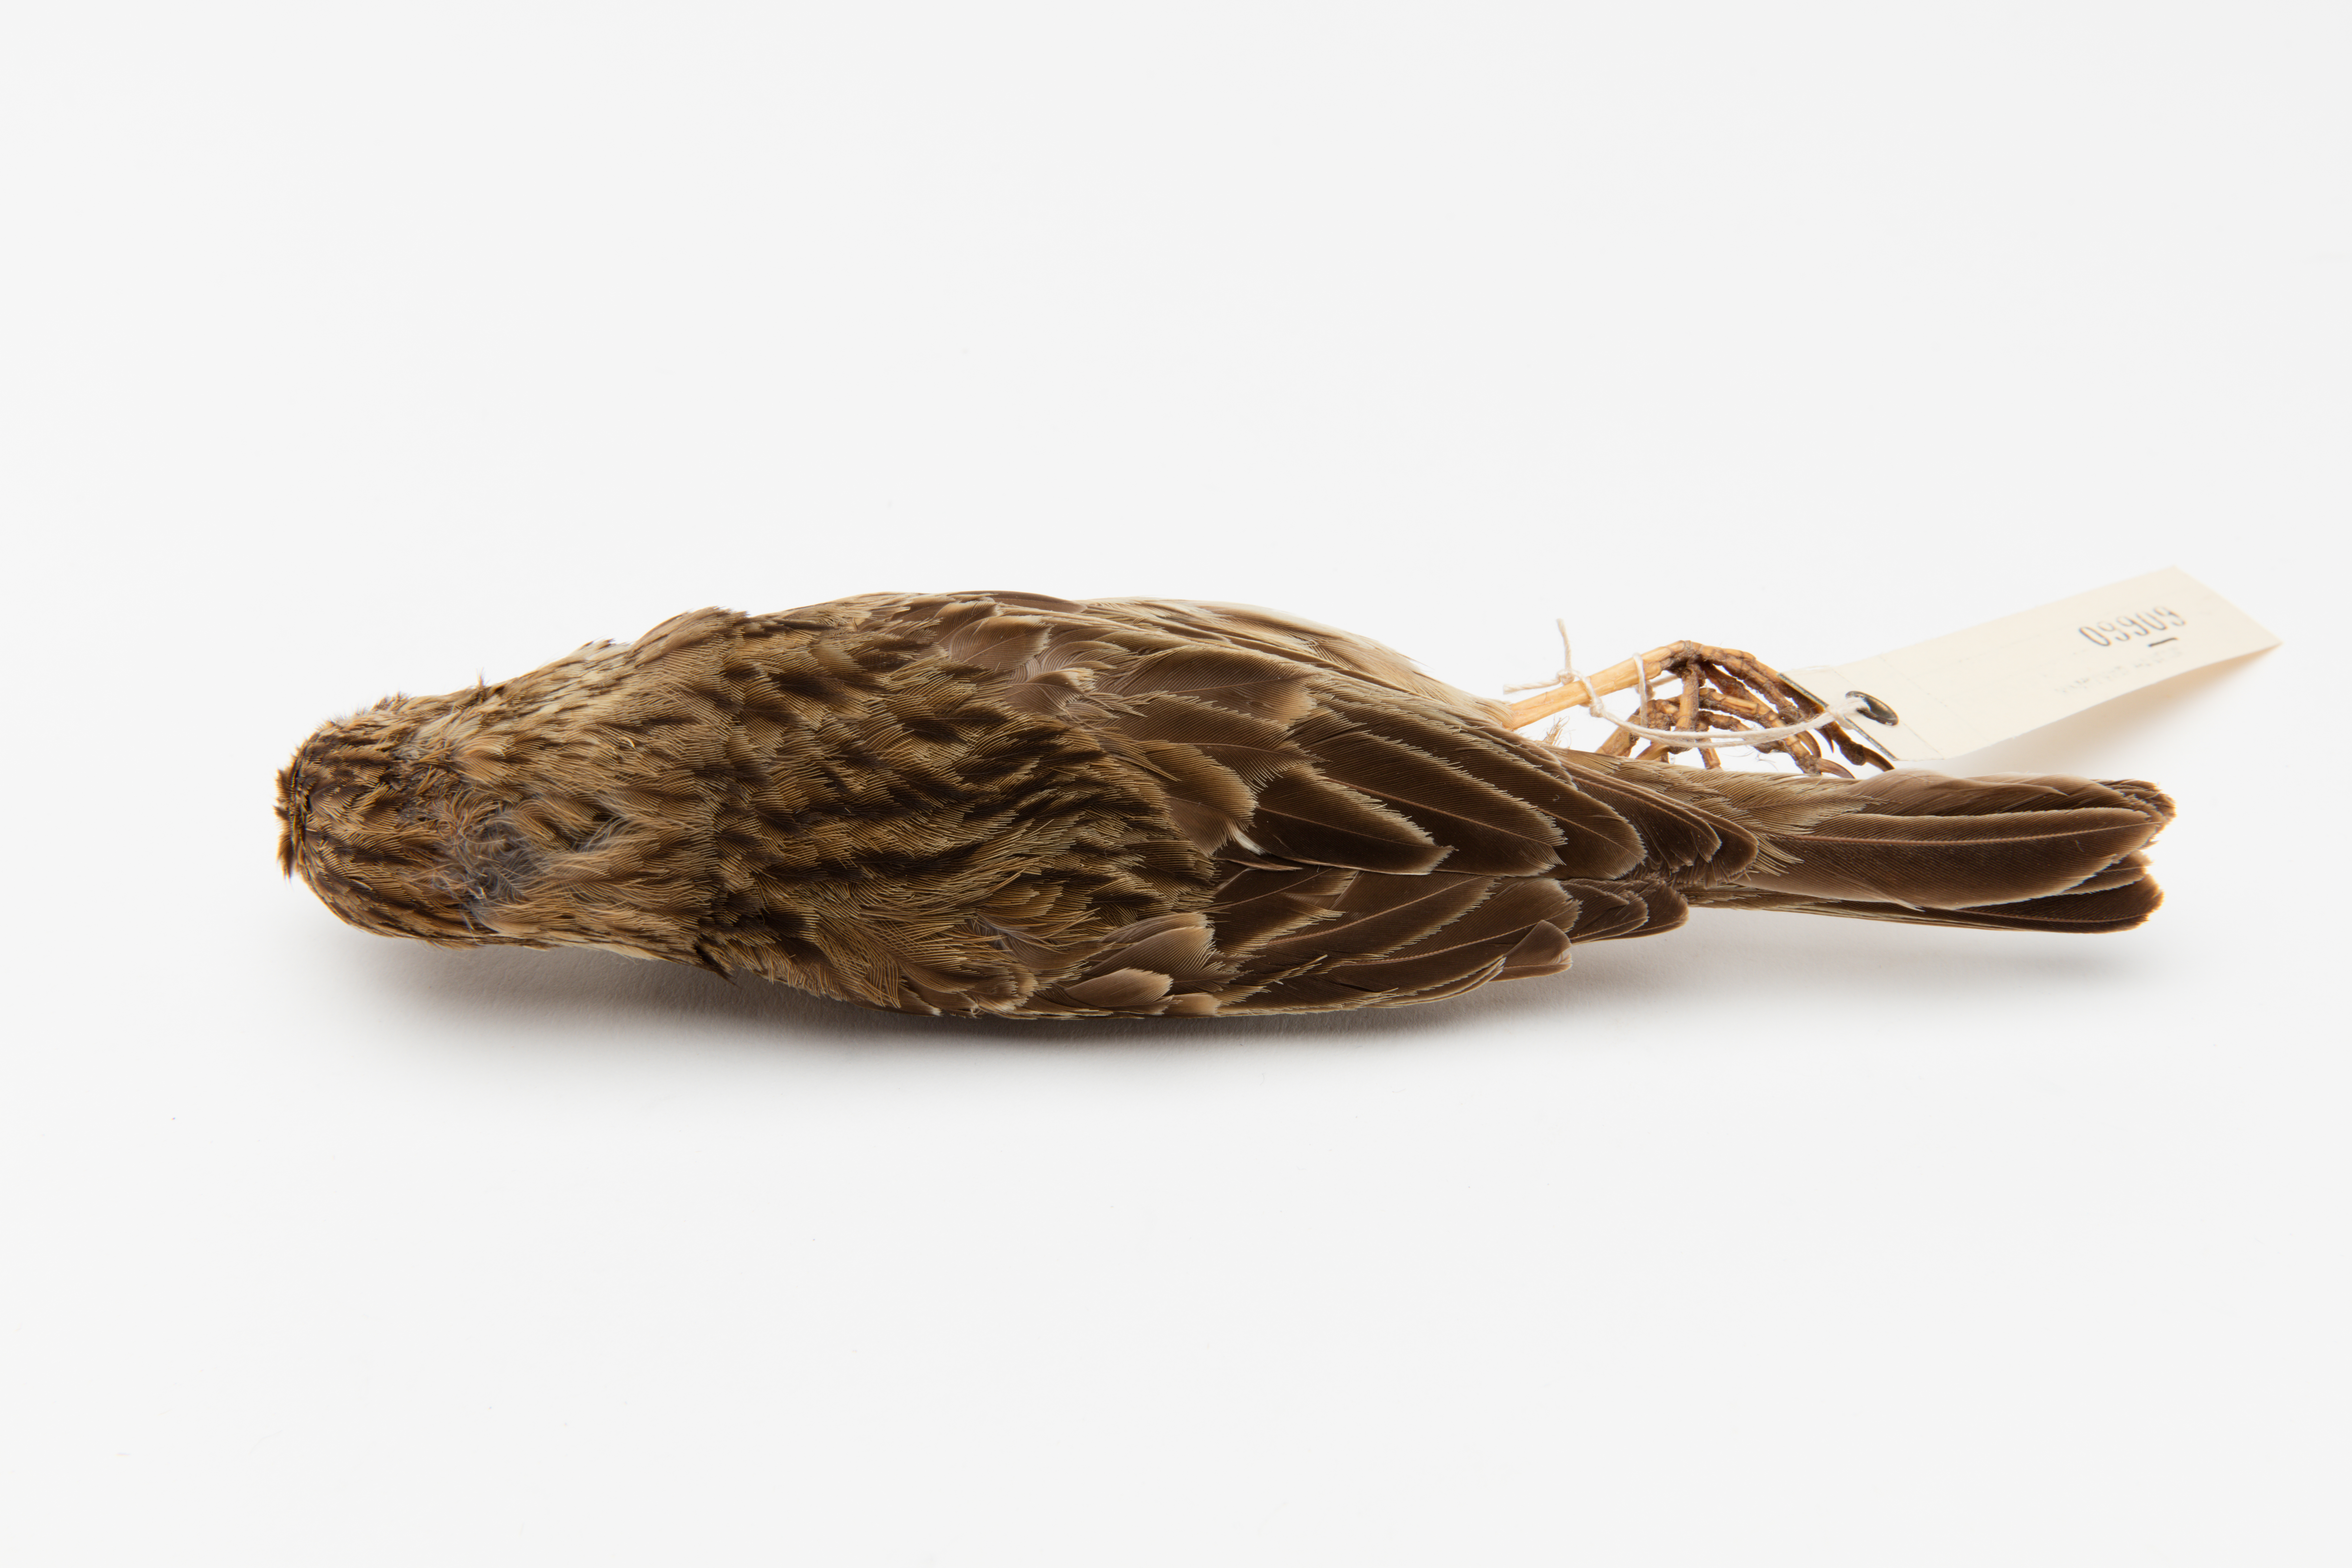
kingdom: Animalia
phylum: Chordata
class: Aves
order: Passeriformes
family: Emberizidae
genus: Emberiza
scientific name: Emberiza calandra
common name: Corn bunting
